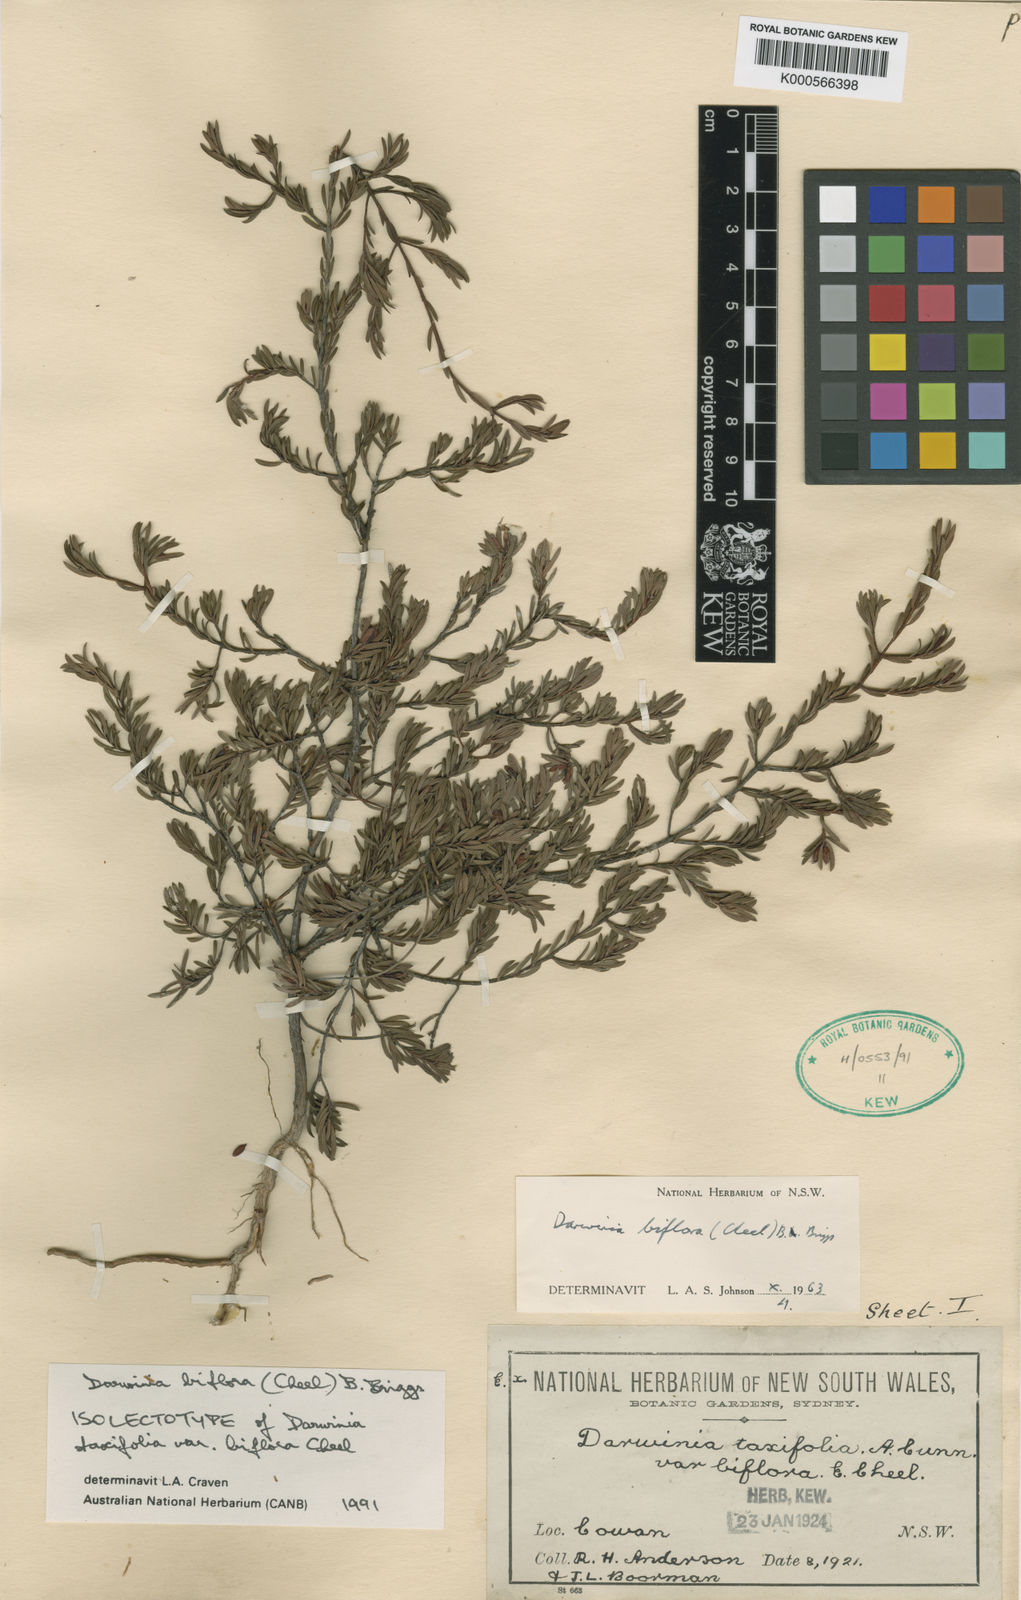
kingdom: Plantae
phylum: Tracheophyta
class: Magnoliopsida
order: Myrtales
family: Myrtaceae
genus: Darwinia
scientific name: Darwinia biflora
